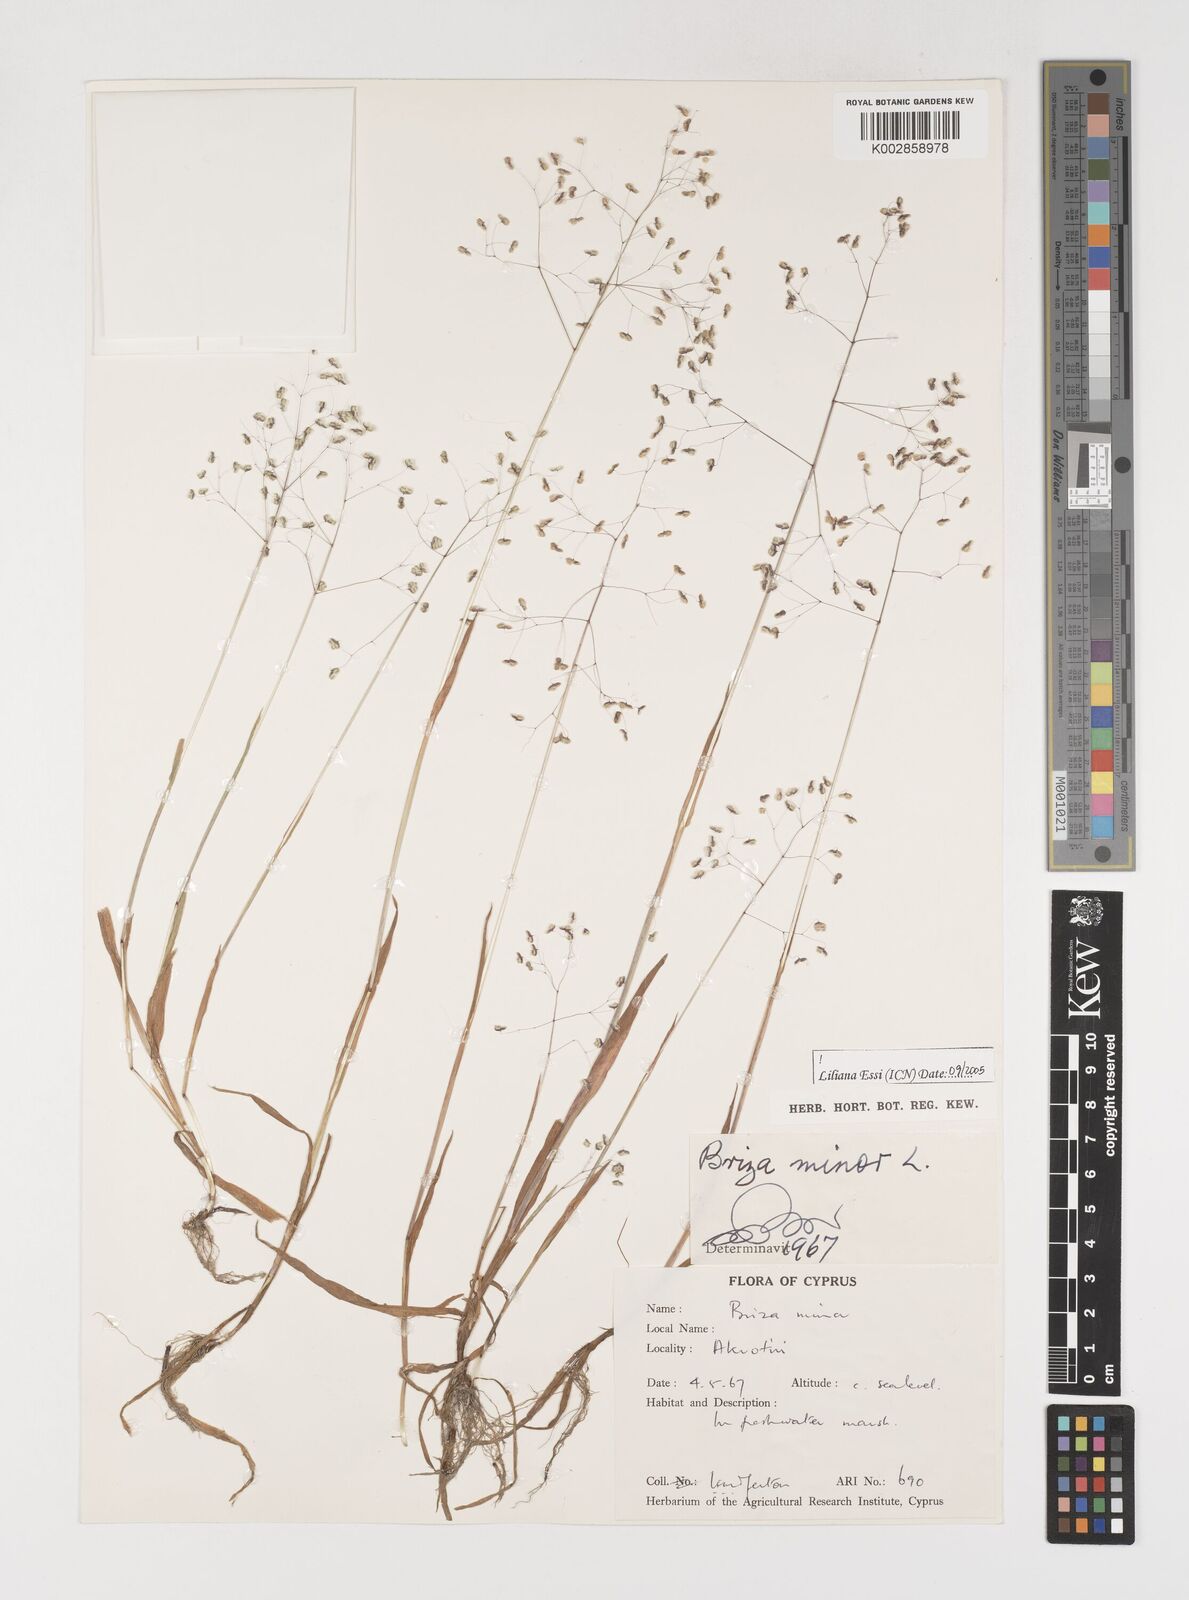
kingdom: Plantae
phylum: Tracheophyta
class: Liliopsida
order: Poales
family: Poaceae
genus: Briza
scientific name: Briza minor
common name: Lesser quaking-grass
